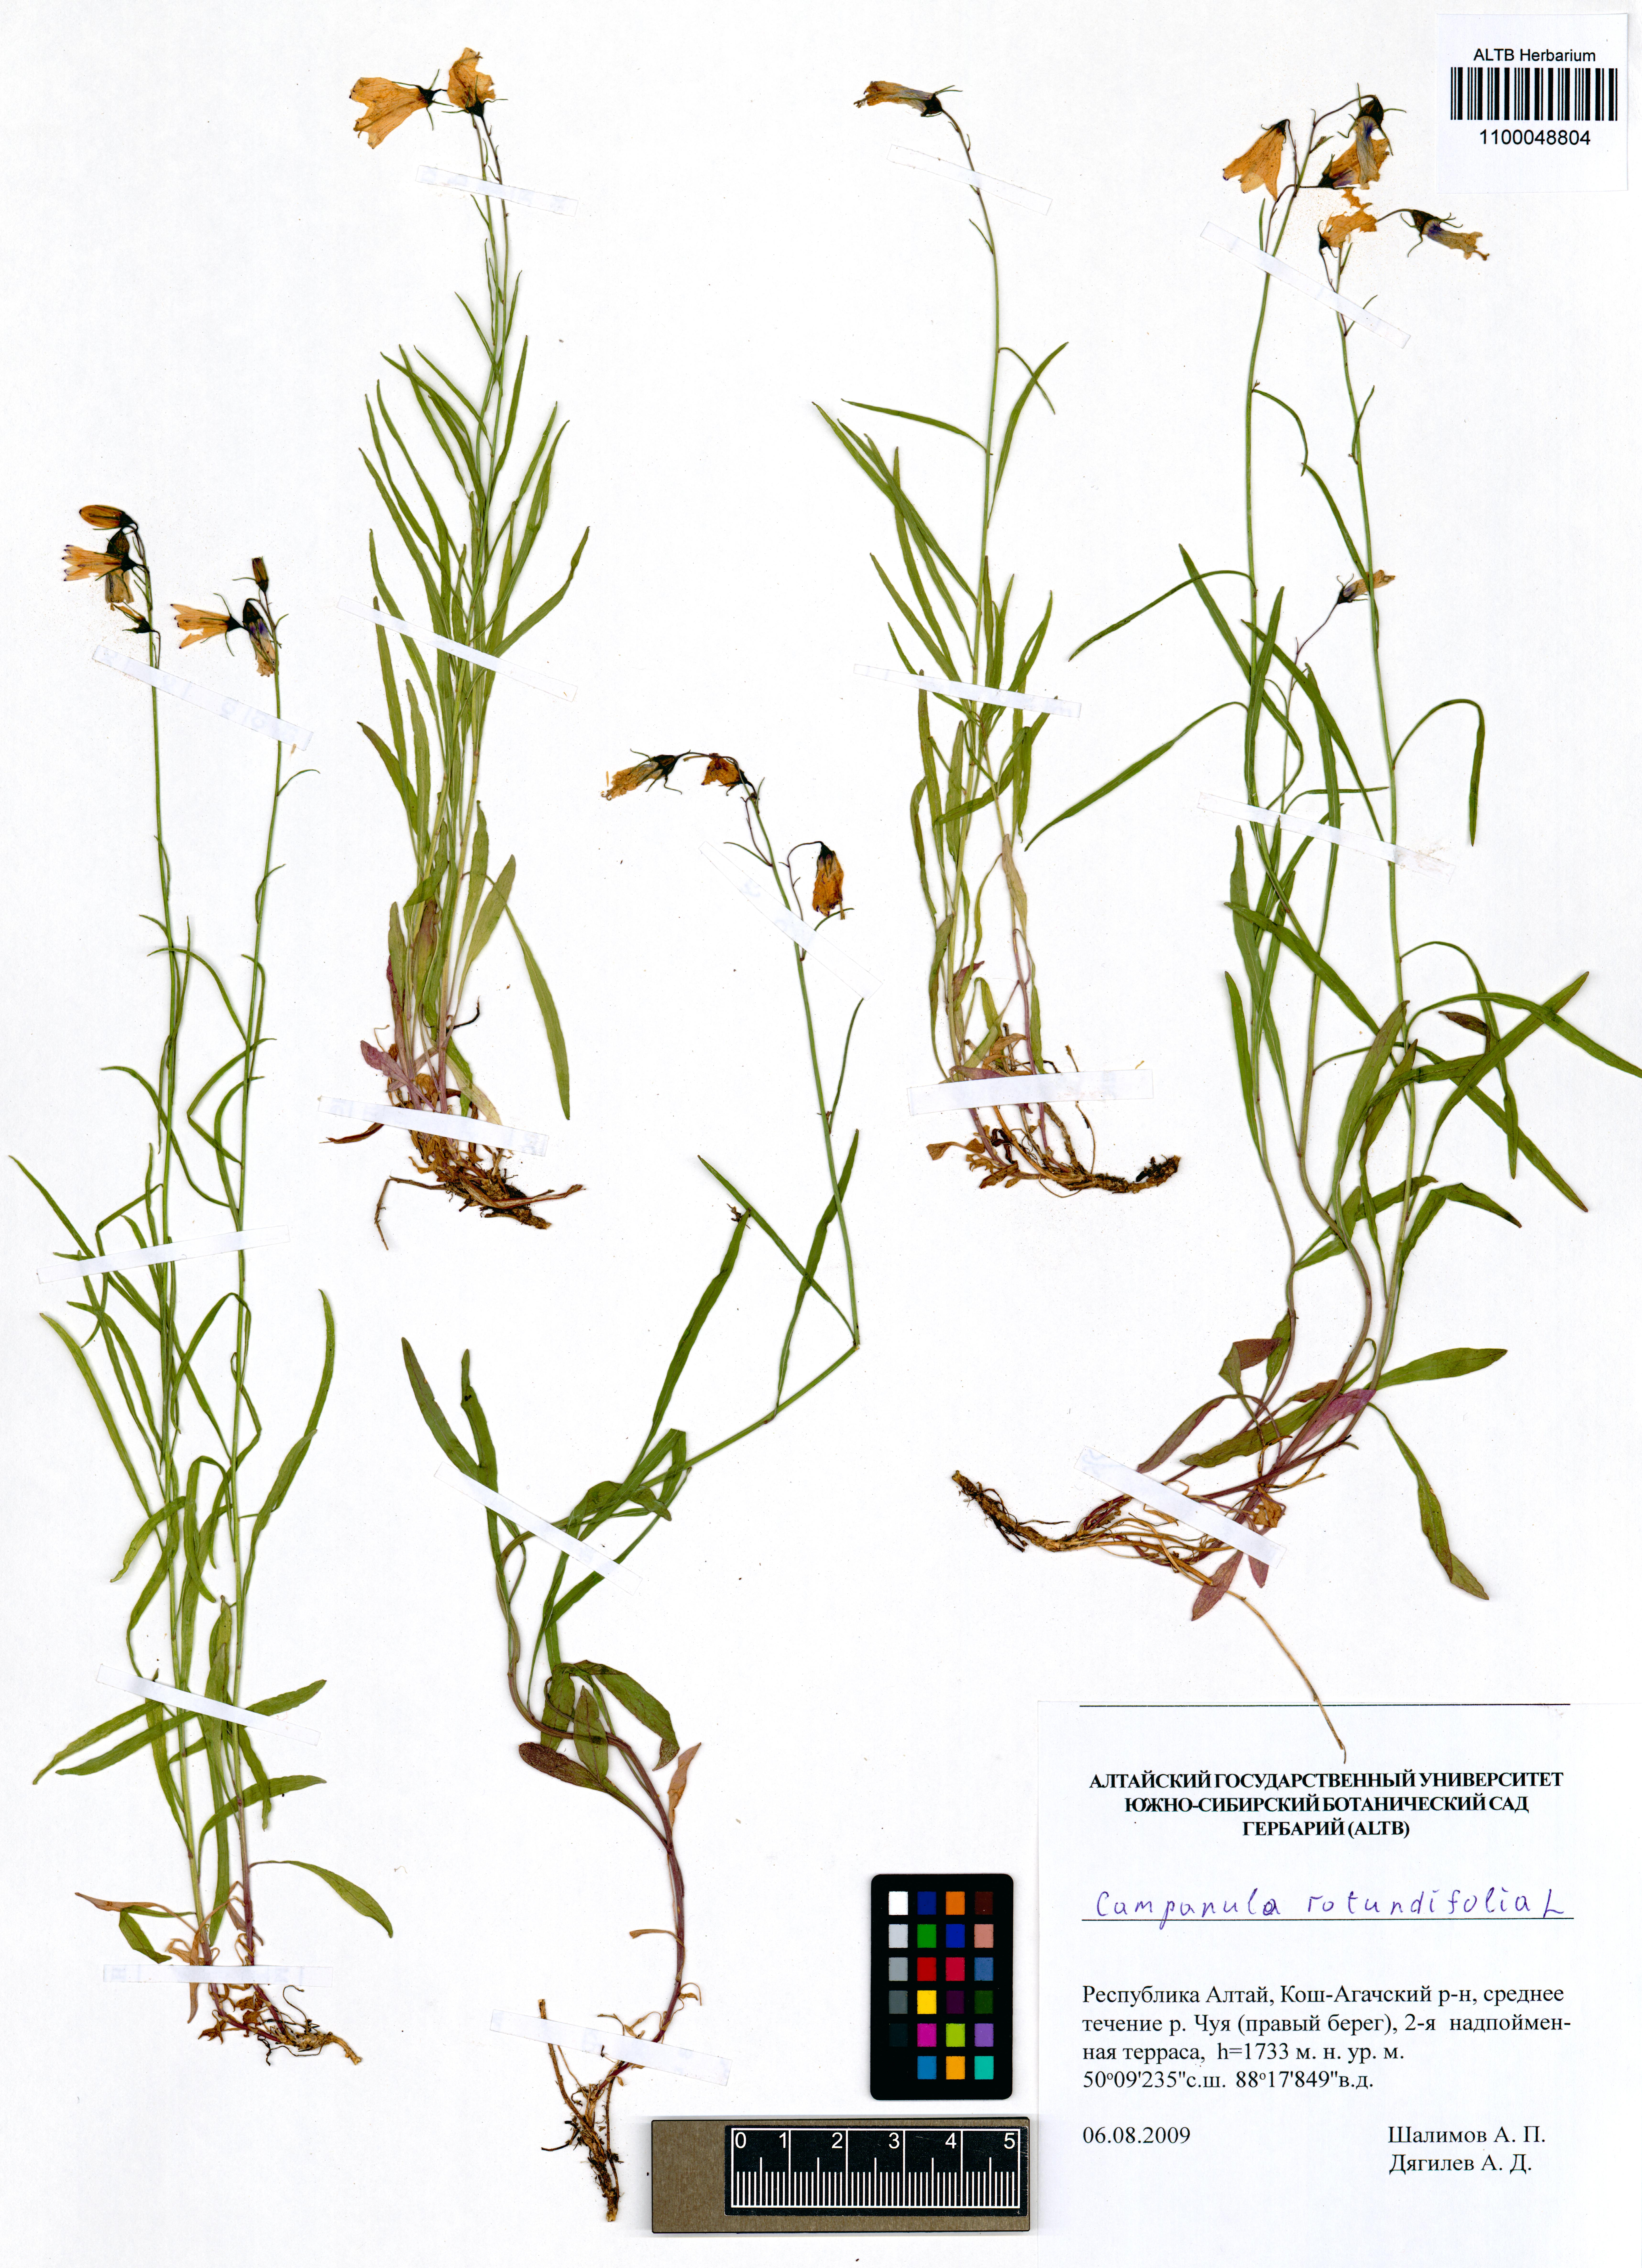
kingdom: Plantae
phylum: Tracheophyta
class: Magnoliopsida
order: Asterales
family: Campanulaceae
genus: Campanula
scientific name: Campanula rotundifolia
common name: Harebell
